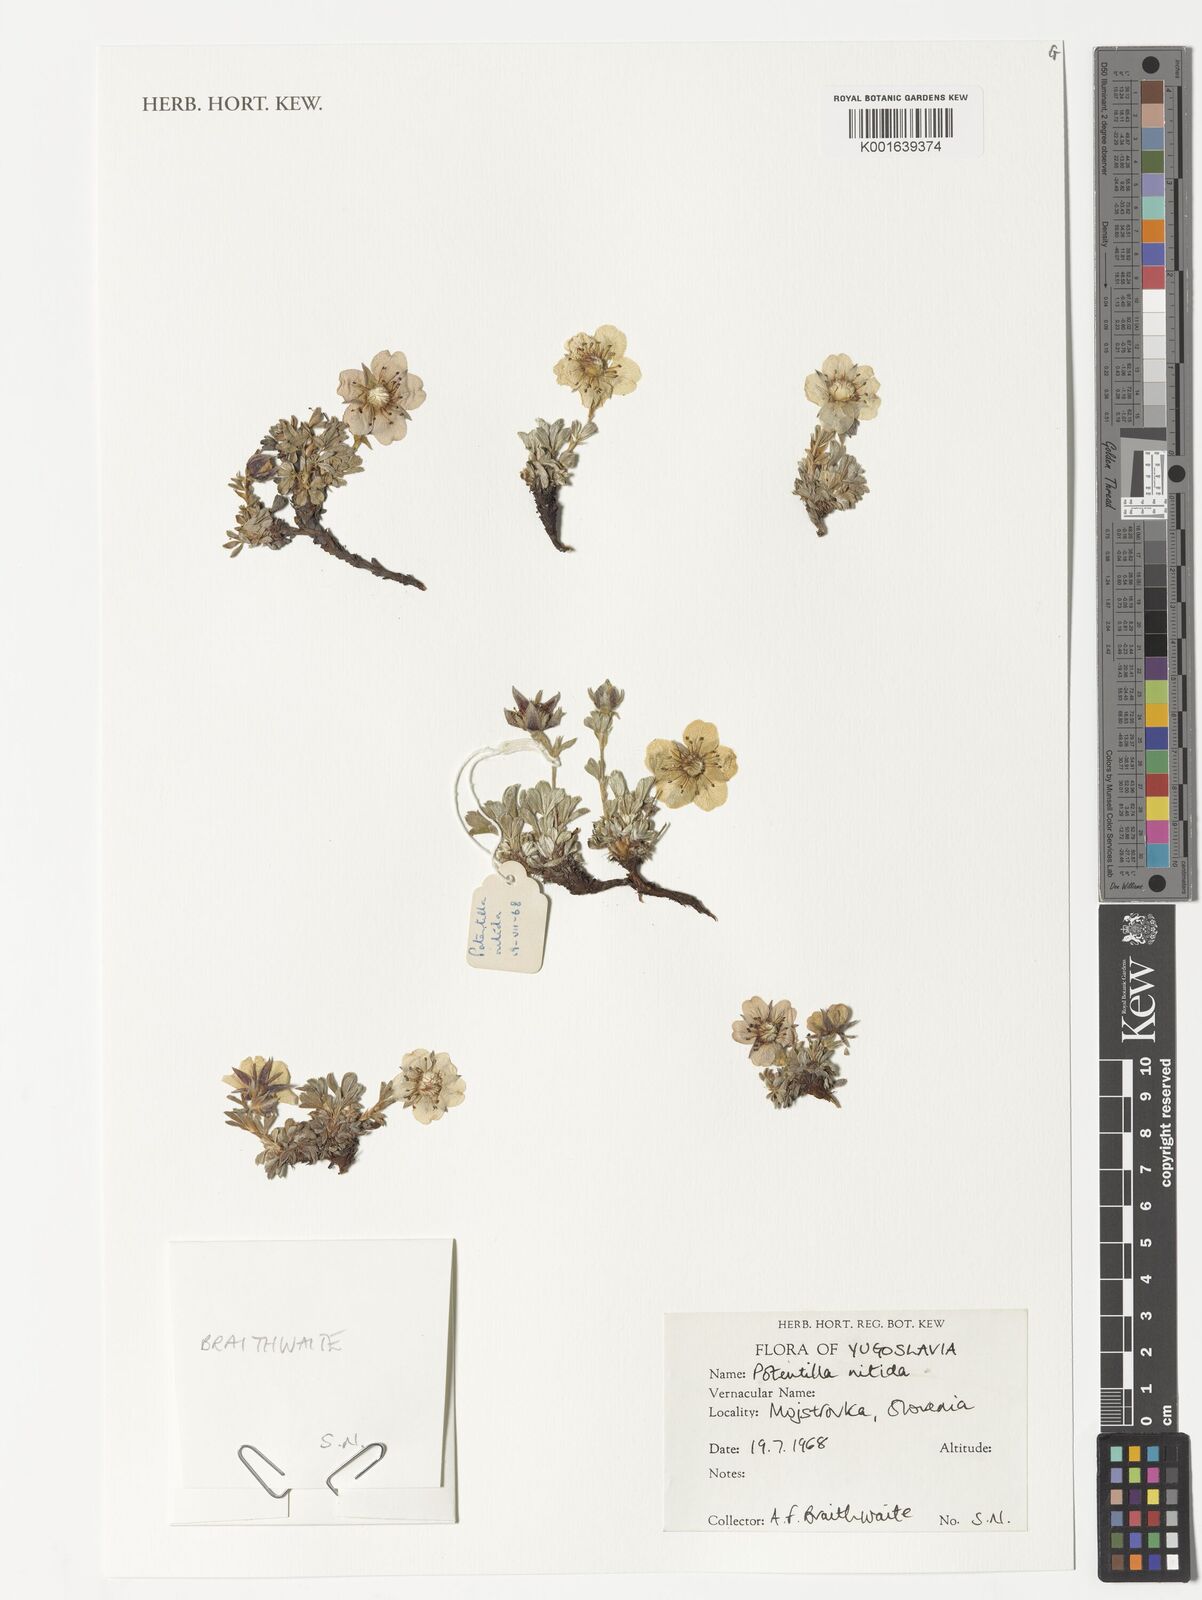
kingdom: Plantae
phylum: Tracheophyta
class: Magnoliopsida
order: Rosales
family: Rosaceae
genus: Potentilla
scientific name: Potentilla nitida
